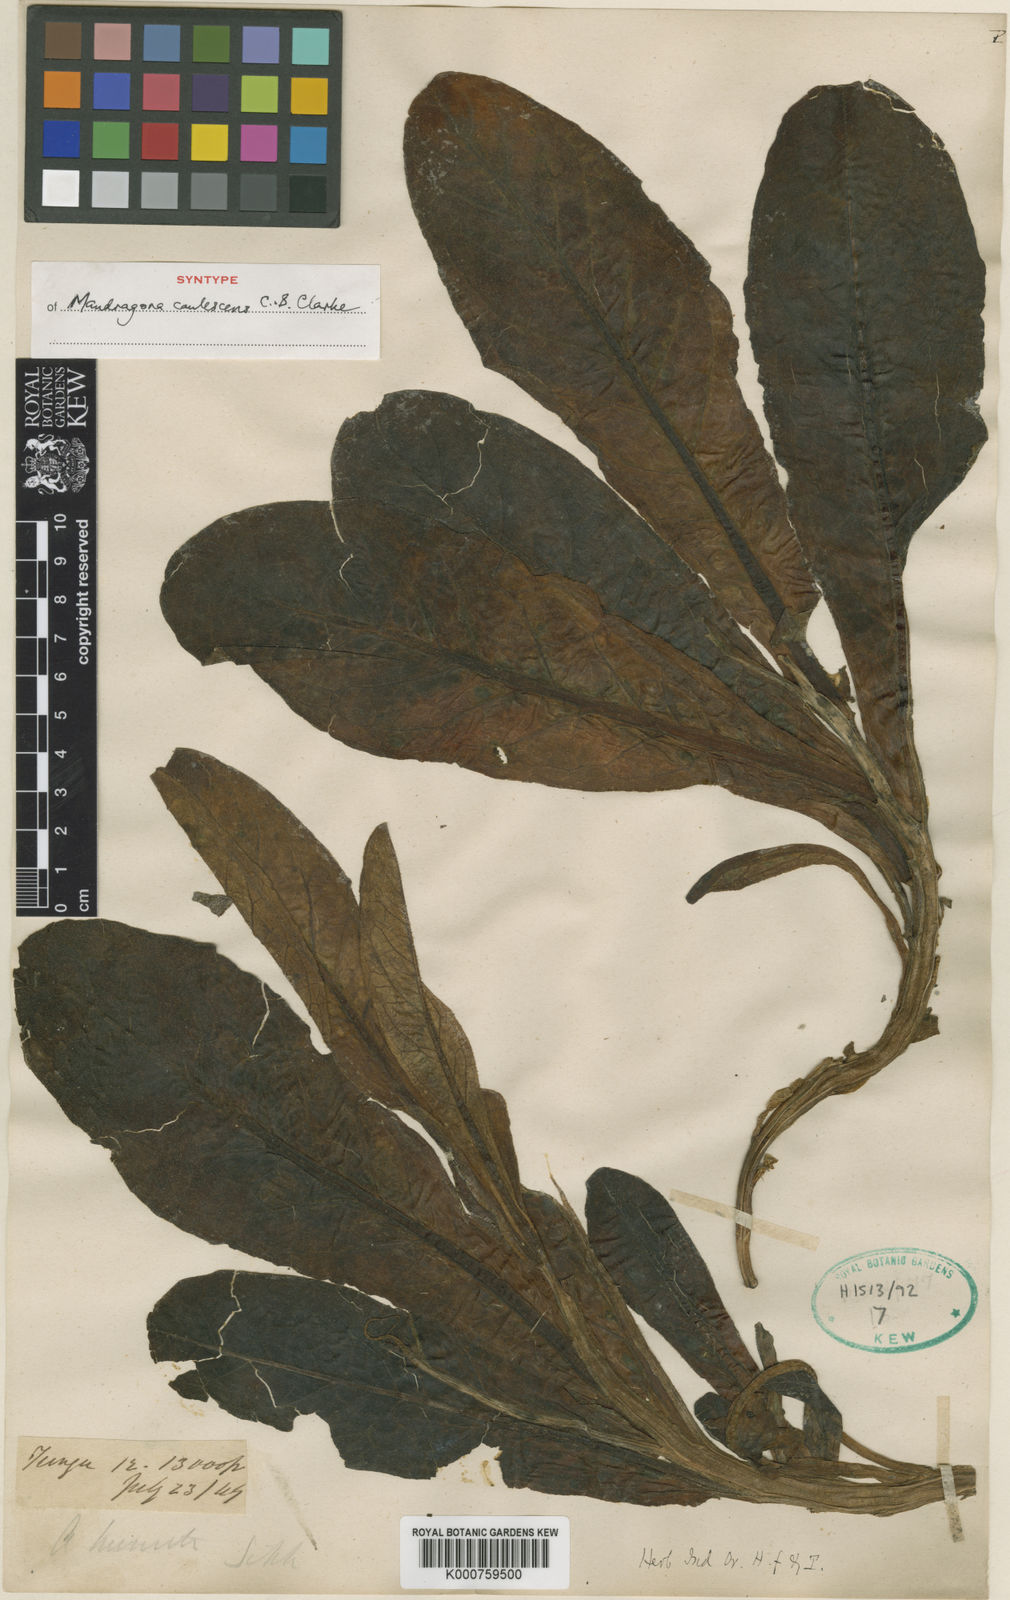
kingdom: Plantae
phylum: Tracheophyta
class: Magnoliopsida
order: Solanales
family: Solanaceae
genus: Mandragora
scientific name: Mandragora caulescens
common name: Himalayan mandrake
